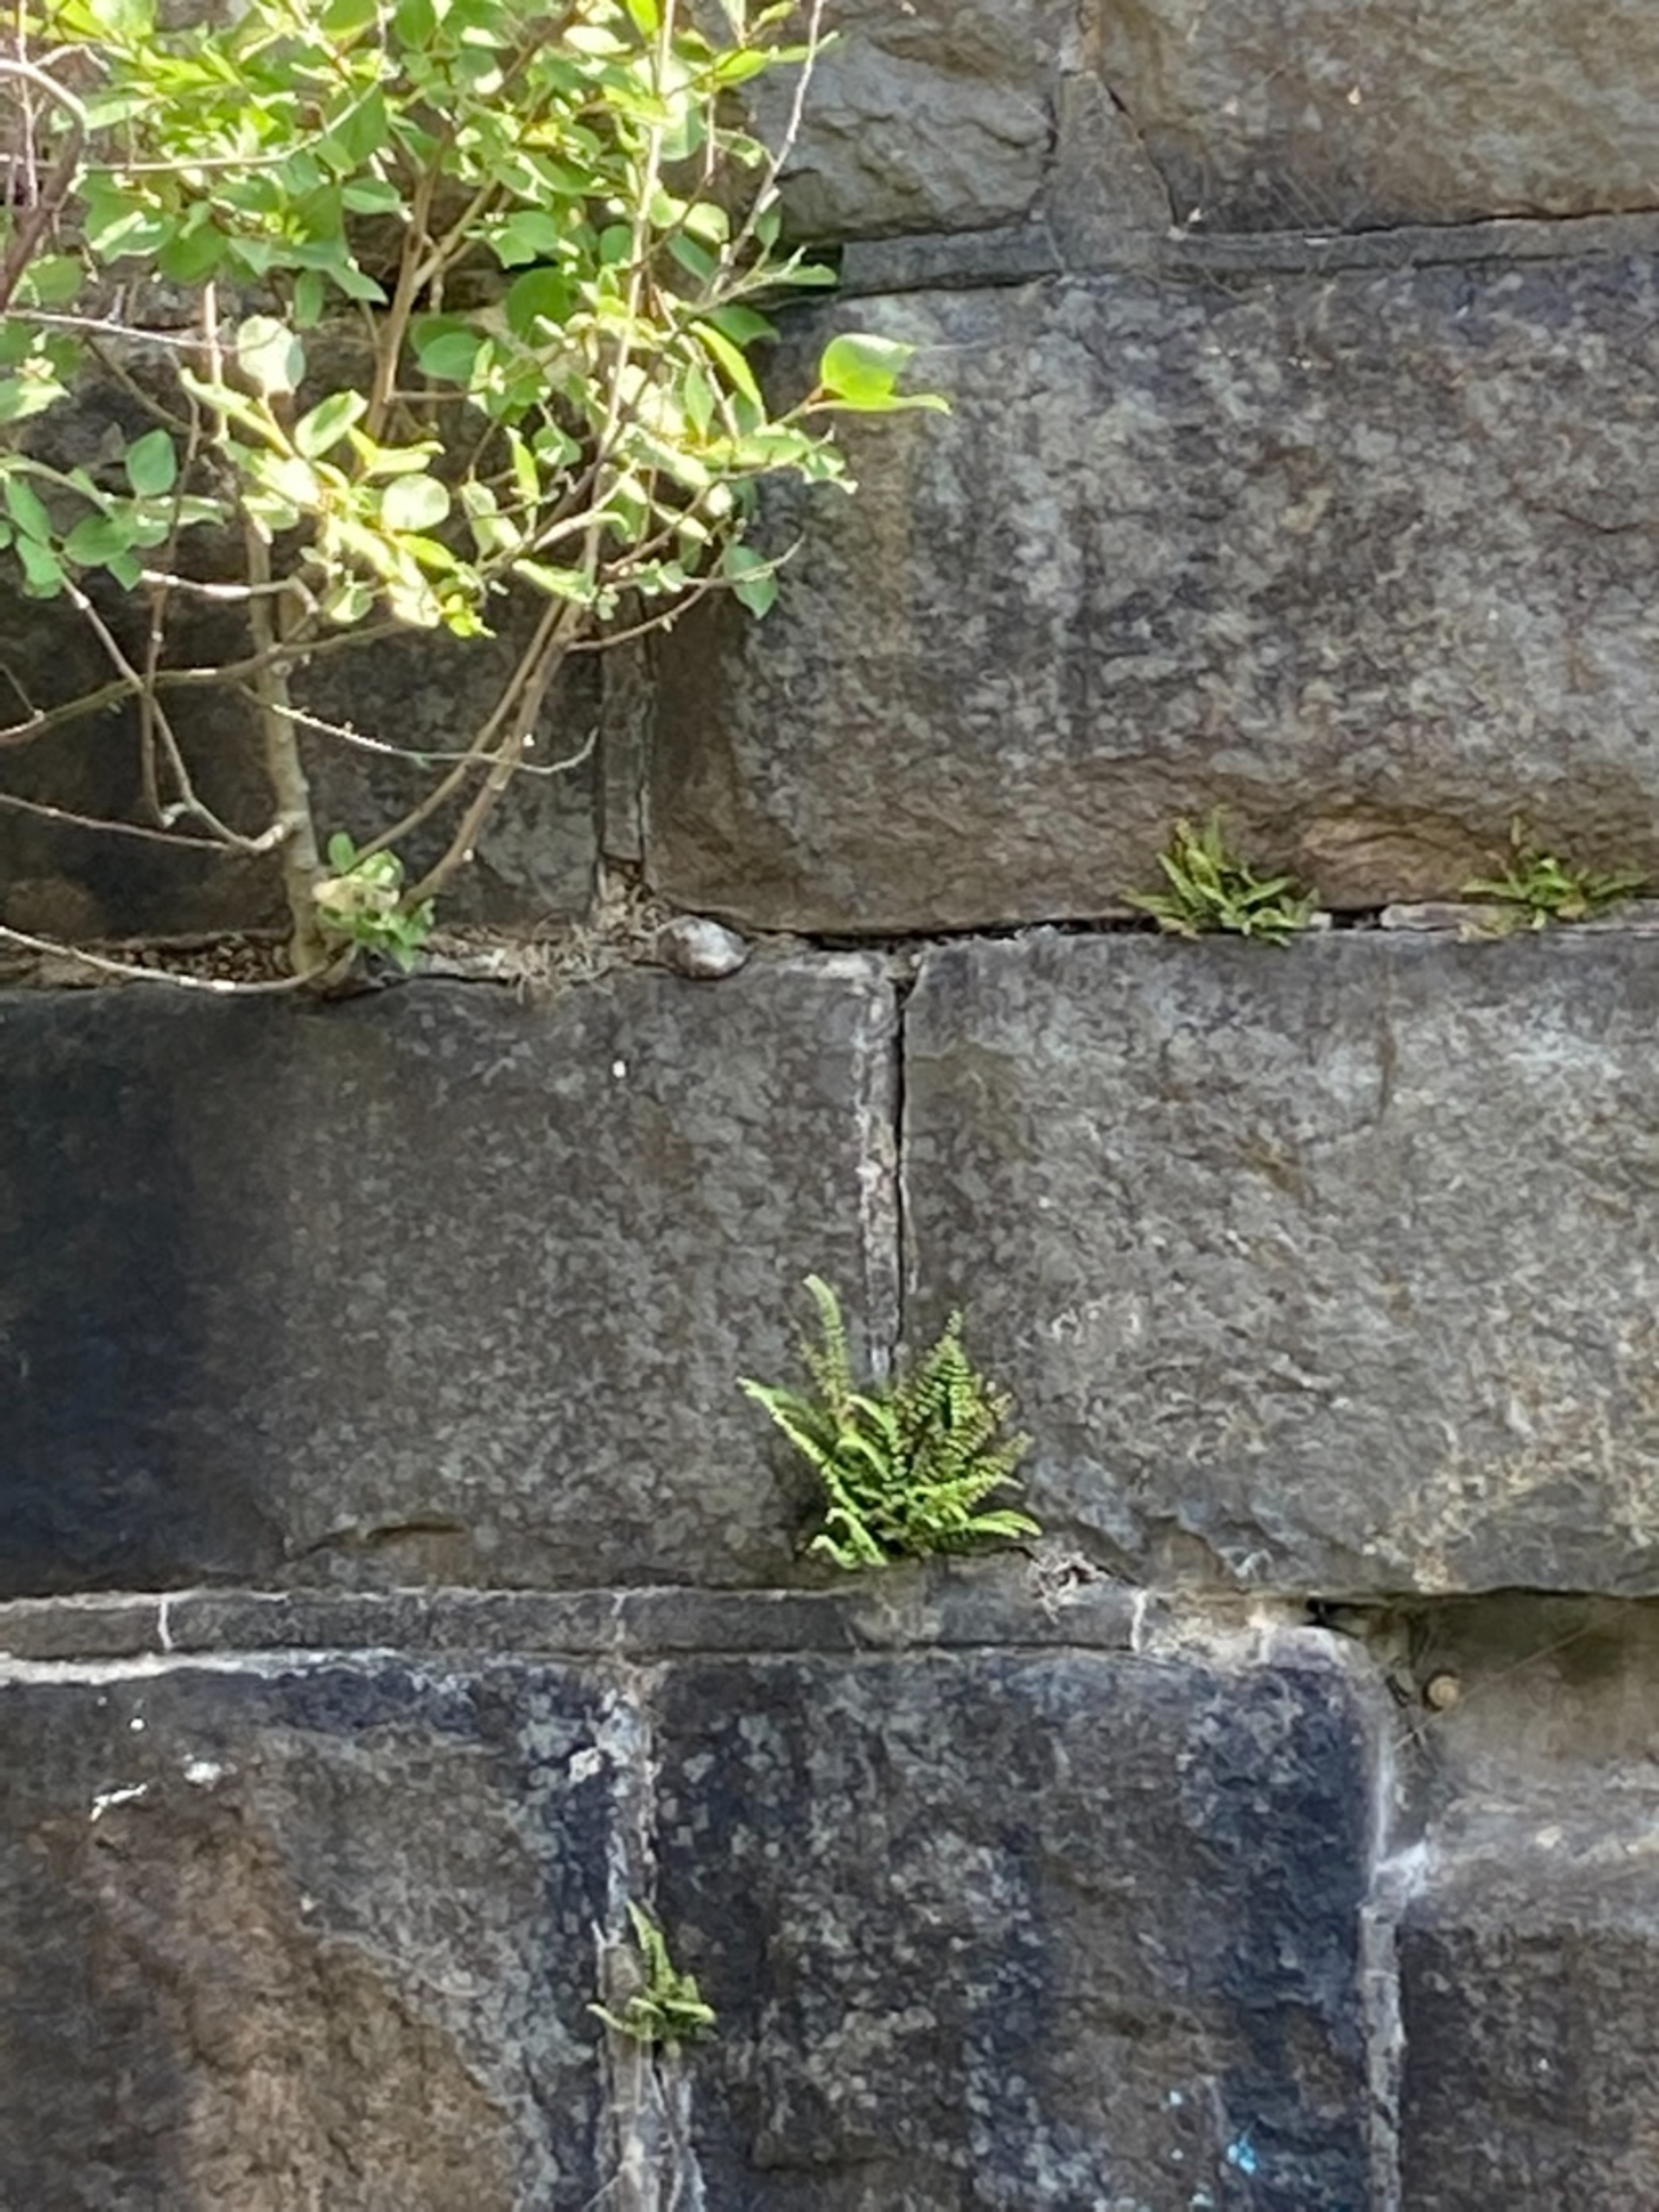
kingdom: Plantae
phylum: Tracheophyta
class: Polypodiopsida
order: Polypodiales
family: Aspleniaceae
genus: Asplenium
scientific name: Asplenium quadrivalens
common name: Kalk-radeløv
